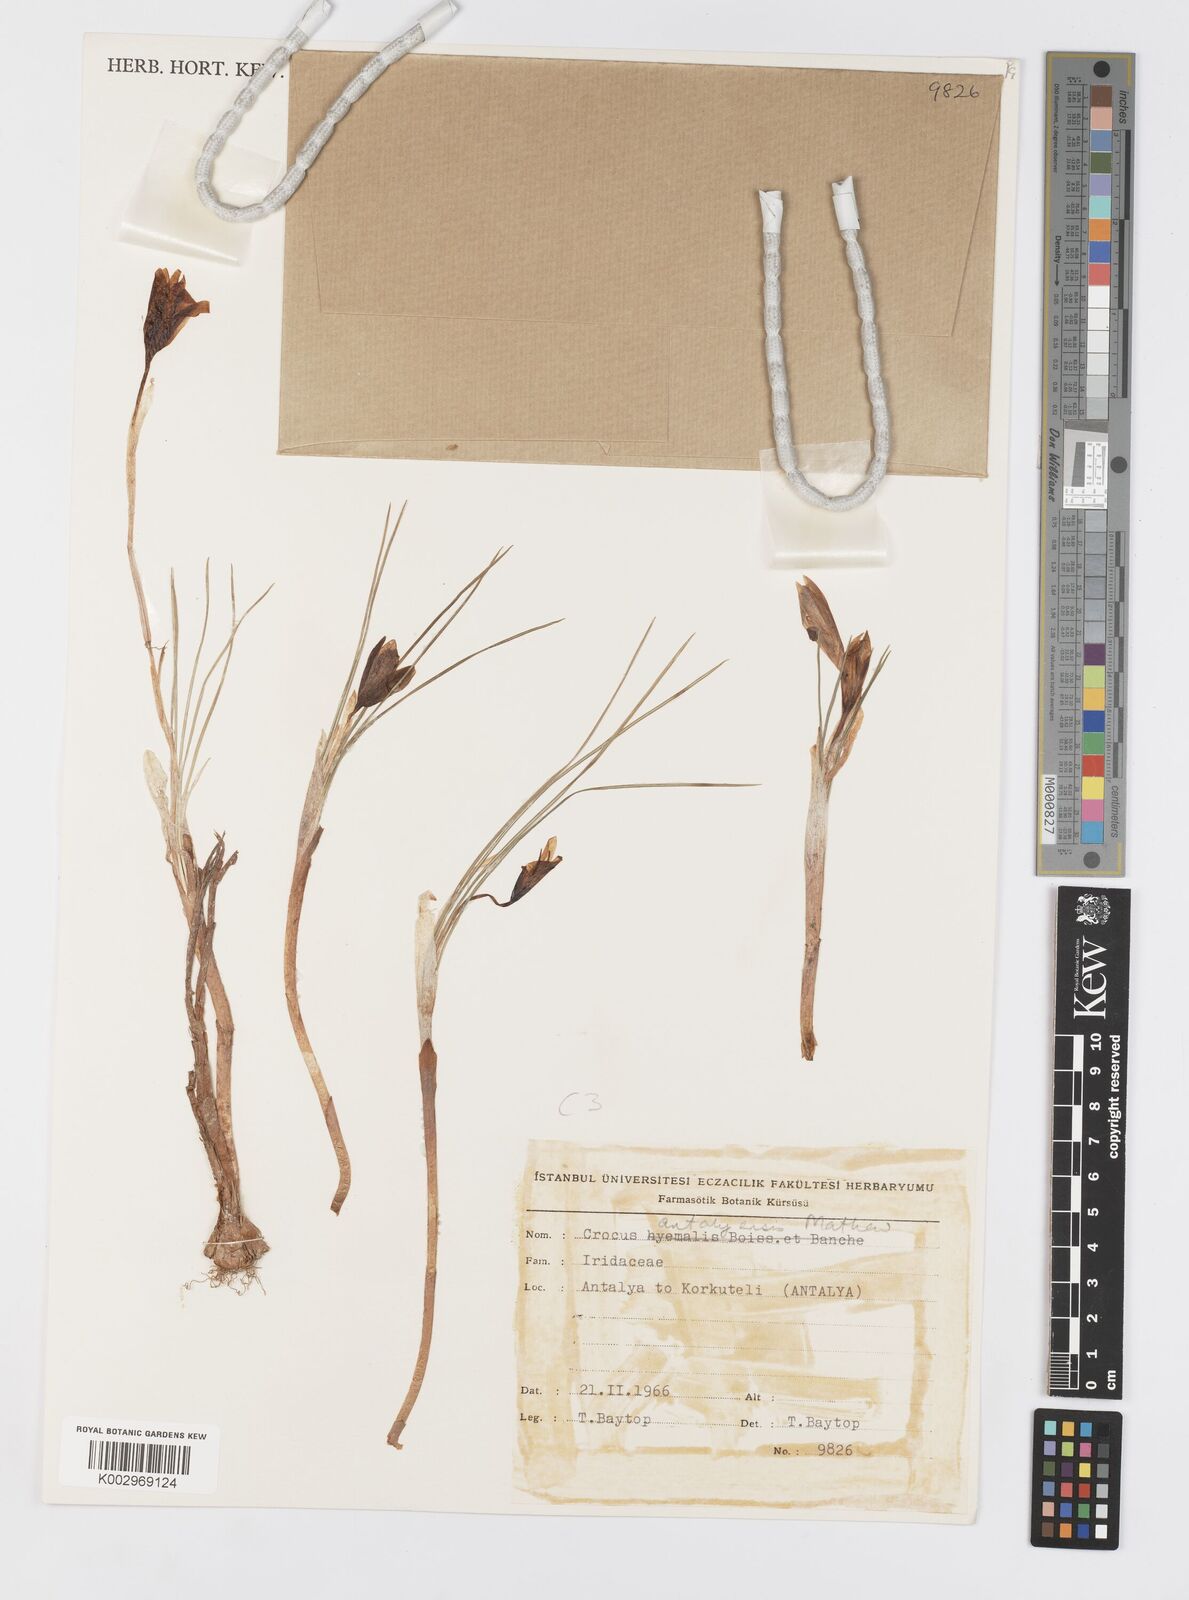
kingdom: Plantae
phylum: Tracheophyta
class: Liliopsida
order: Asparagales
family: Iridaceae
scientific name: Iridaceae
